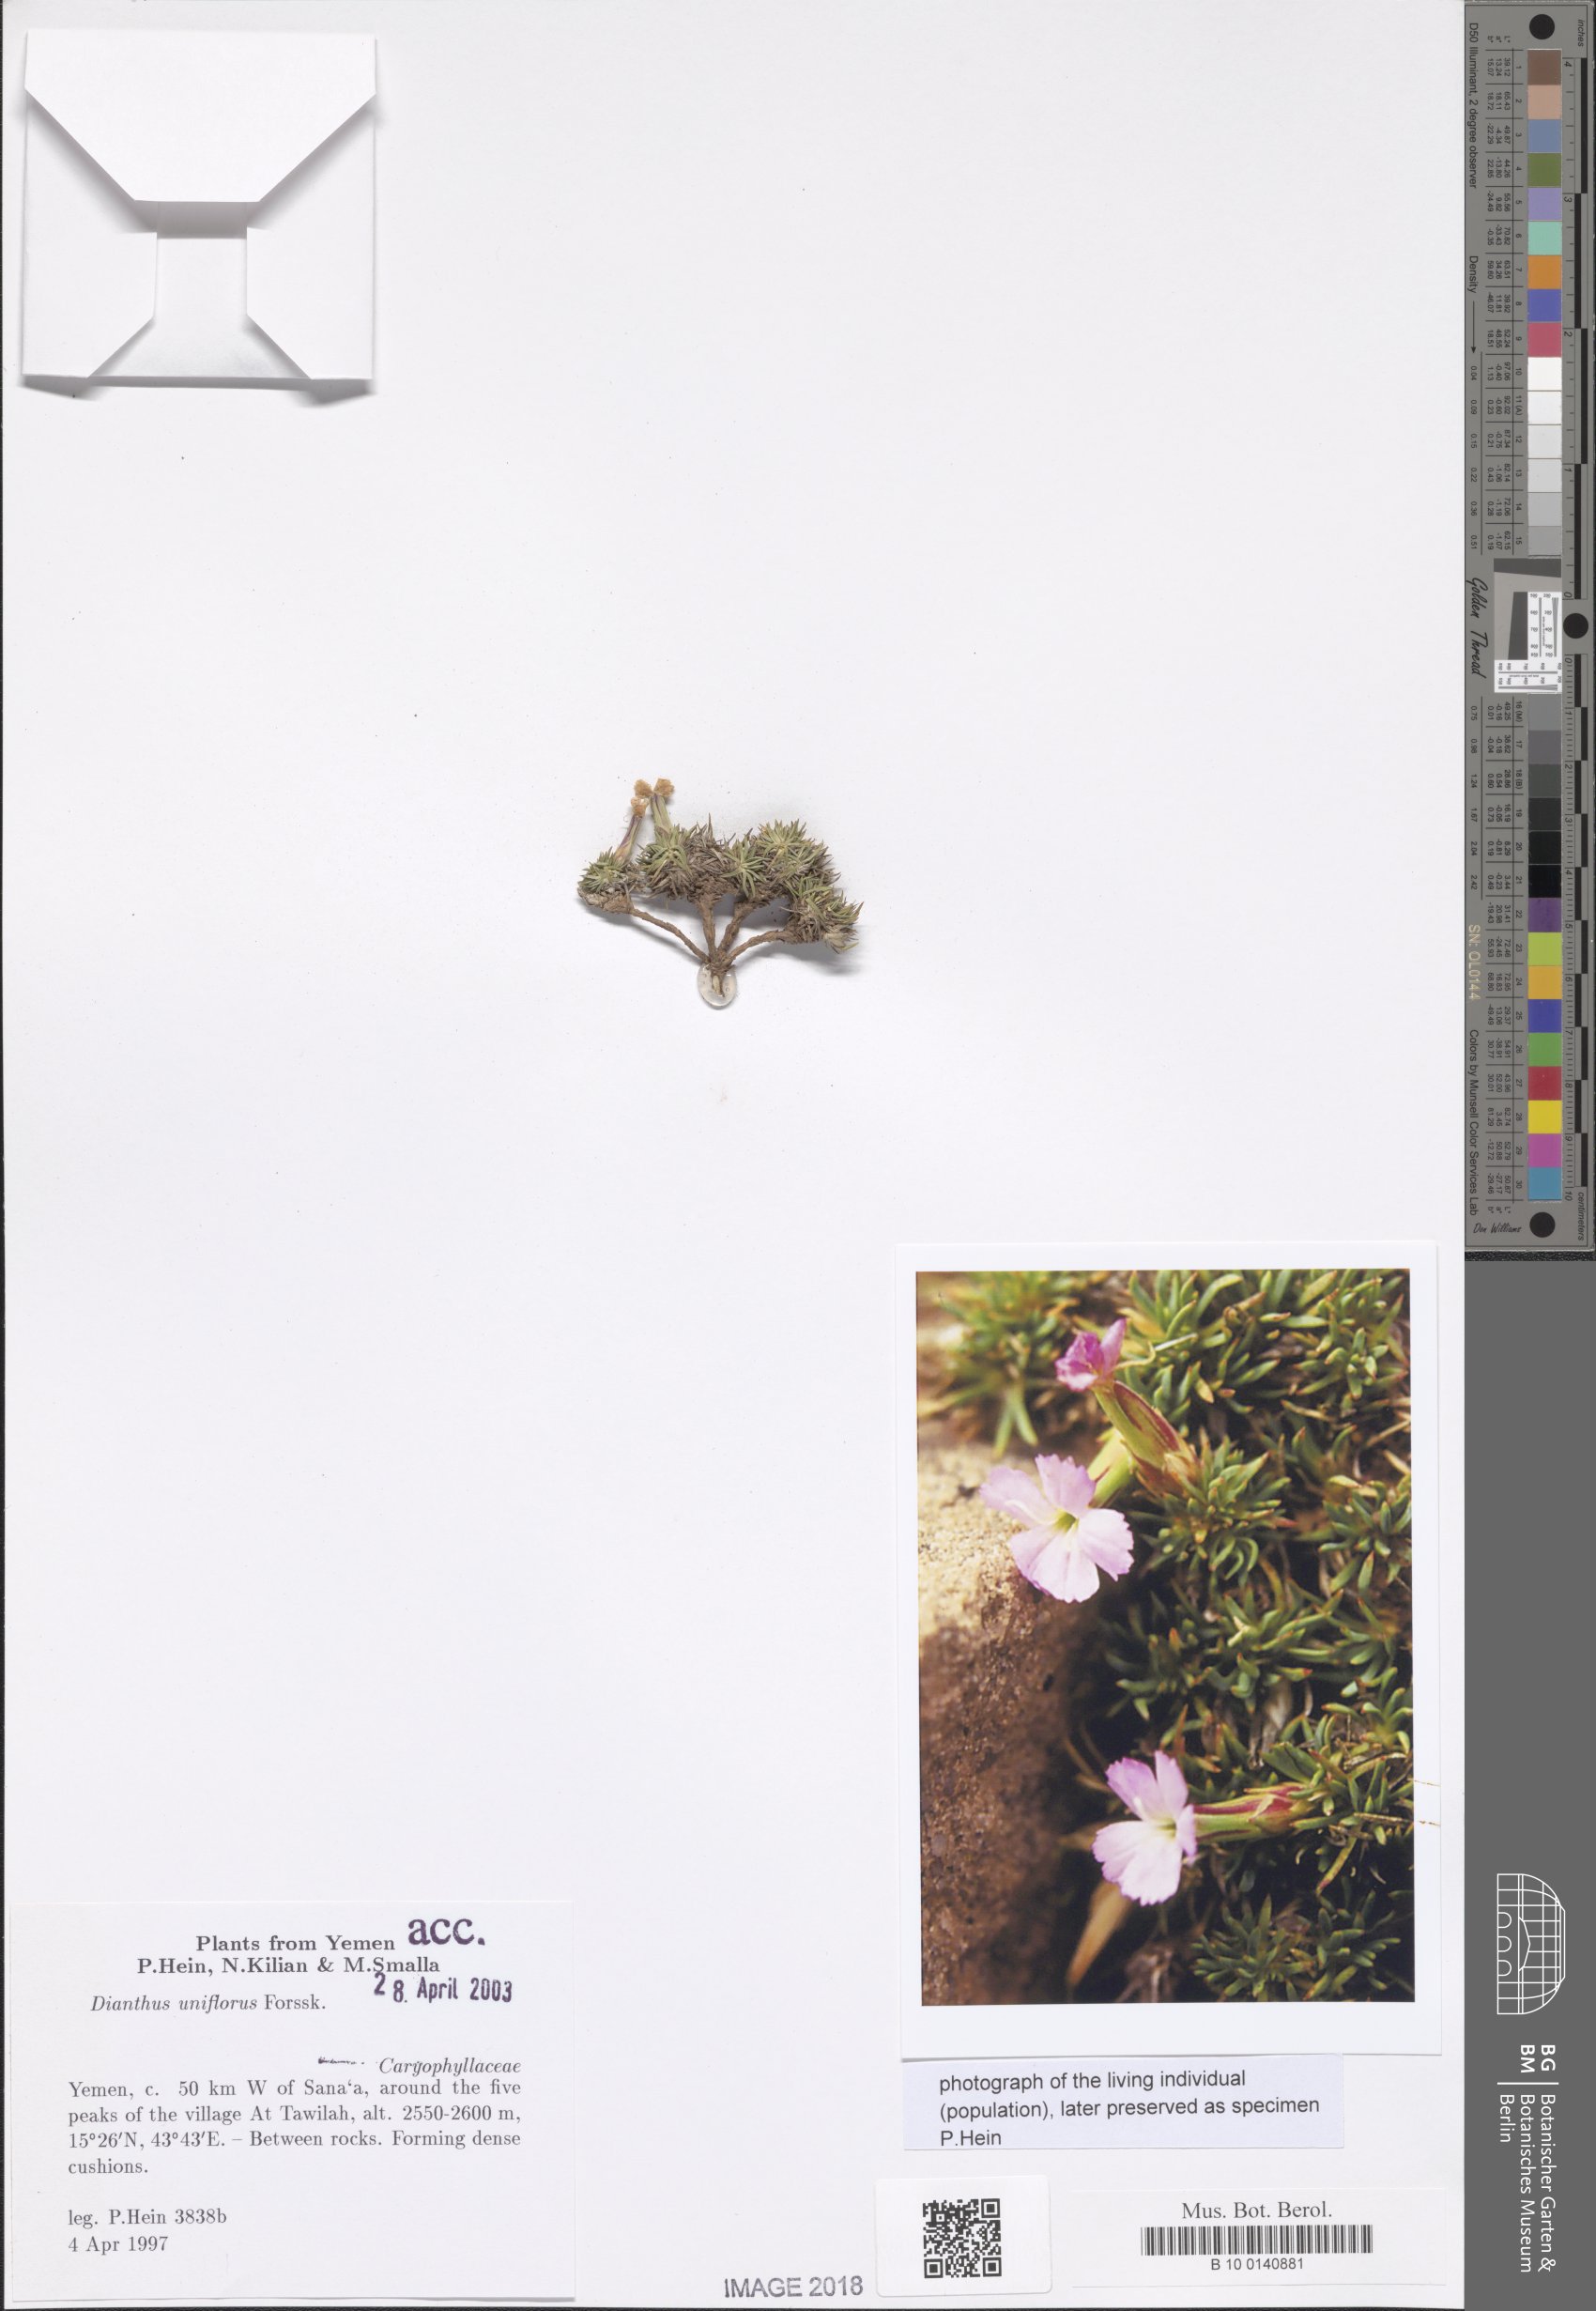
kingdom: Plantae
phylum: Tracheophyta
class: Magnoliopsida
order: Caryophyllales
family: Caryophyllaceae
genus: Dianthus
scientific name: Dianthus uniflorus
